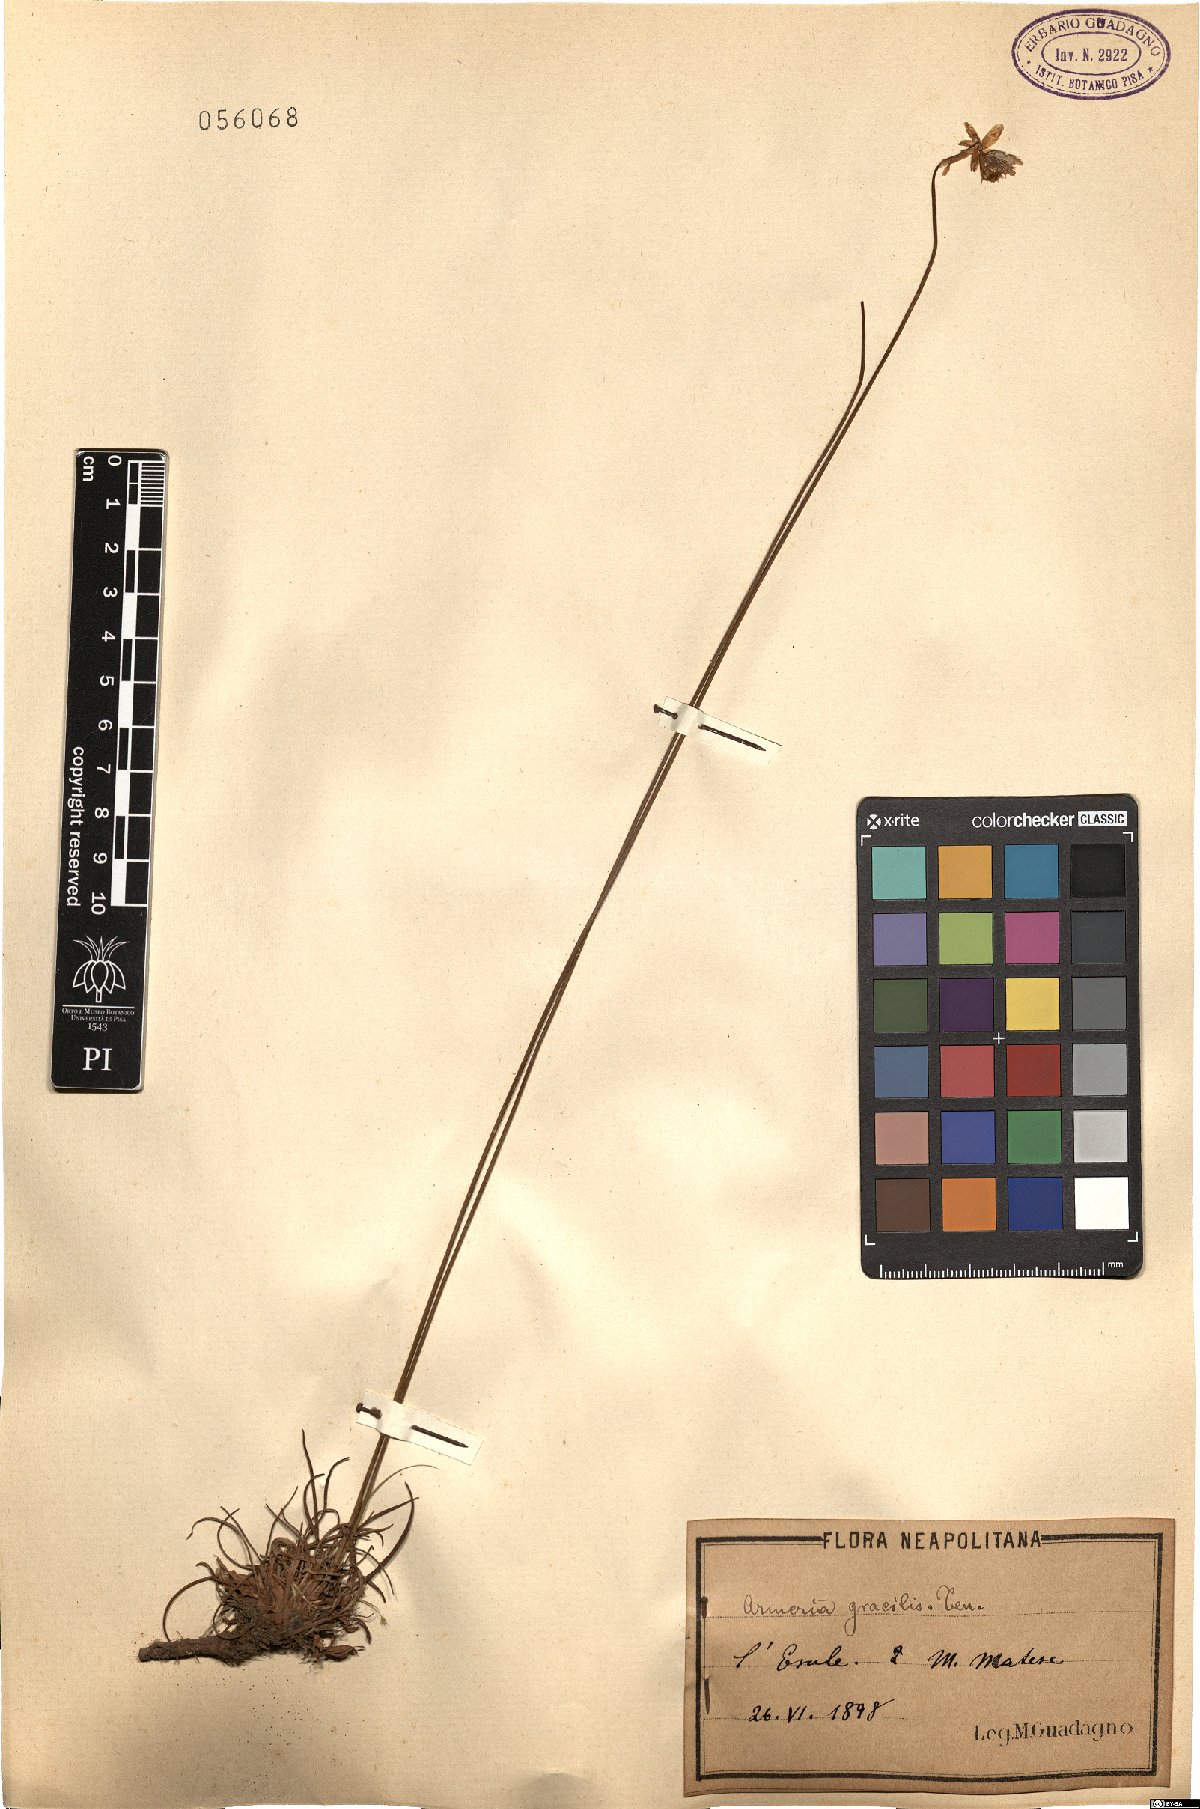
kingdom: Plantae
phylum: Tracheophyta
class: Magnoliopsida
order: Caryophyllales
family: Plumbaginaceae
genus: Armeria
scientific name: Armeria nebrodensis
